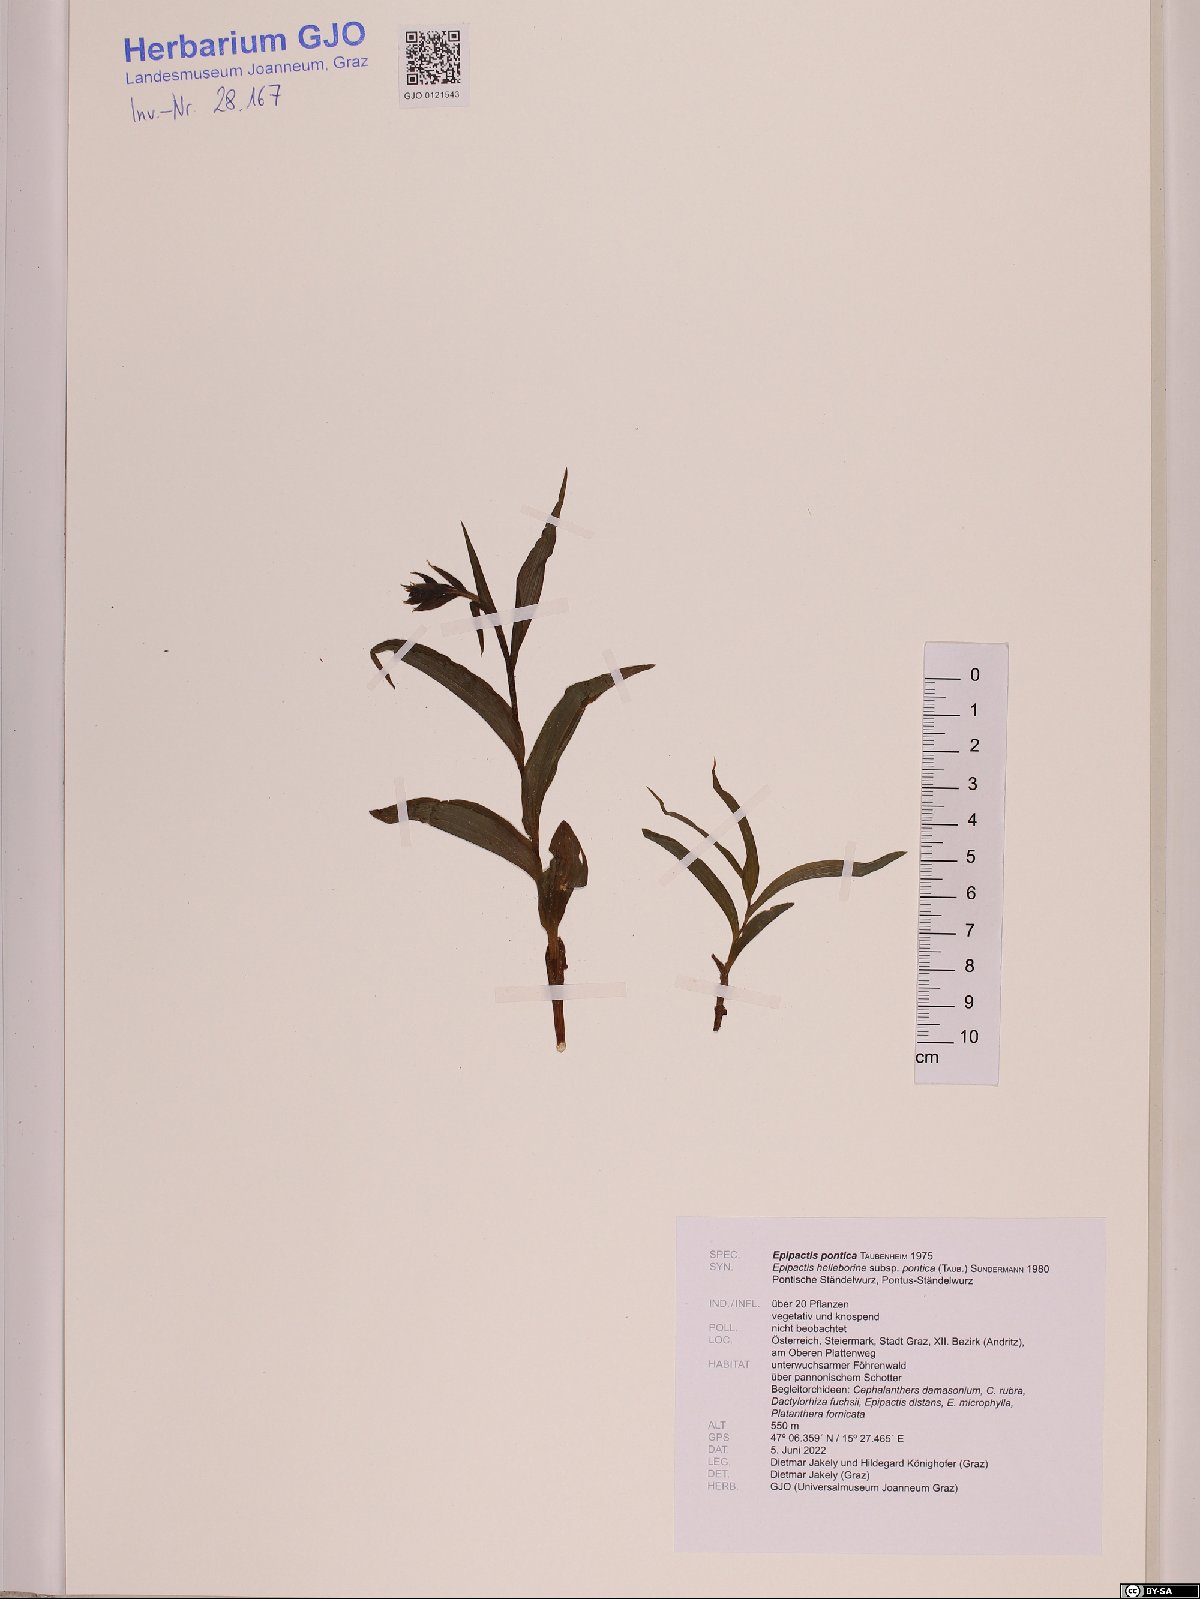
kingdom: Plantae
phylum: Tracheophyta
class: Liliopsida
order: Asparagales
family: Orchidaceae
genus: Epipactis
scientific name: Epipactis pontica
